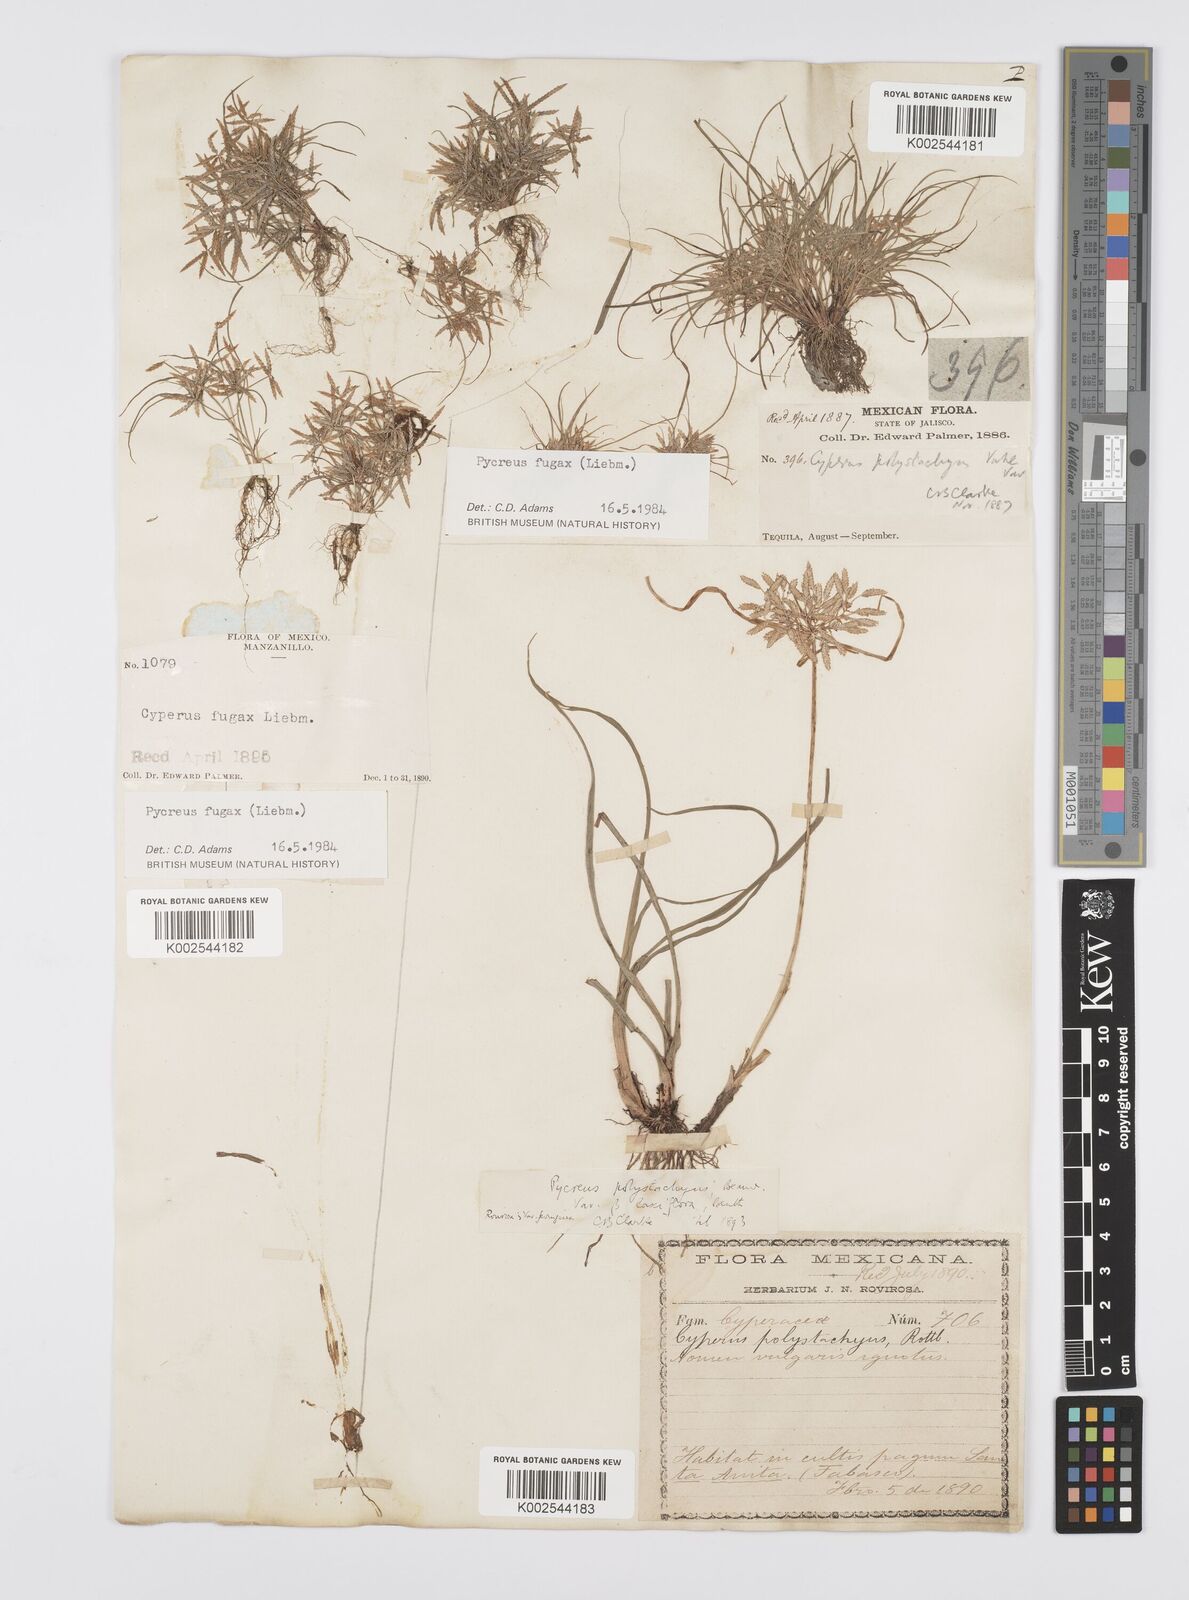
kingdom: Plantae
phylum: Tracheophyta
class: Liliopsida
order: Poales
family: Cyperaceae
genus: Cyperus
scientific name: Cyperus polystachyos
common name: Bunchy flat sedge
